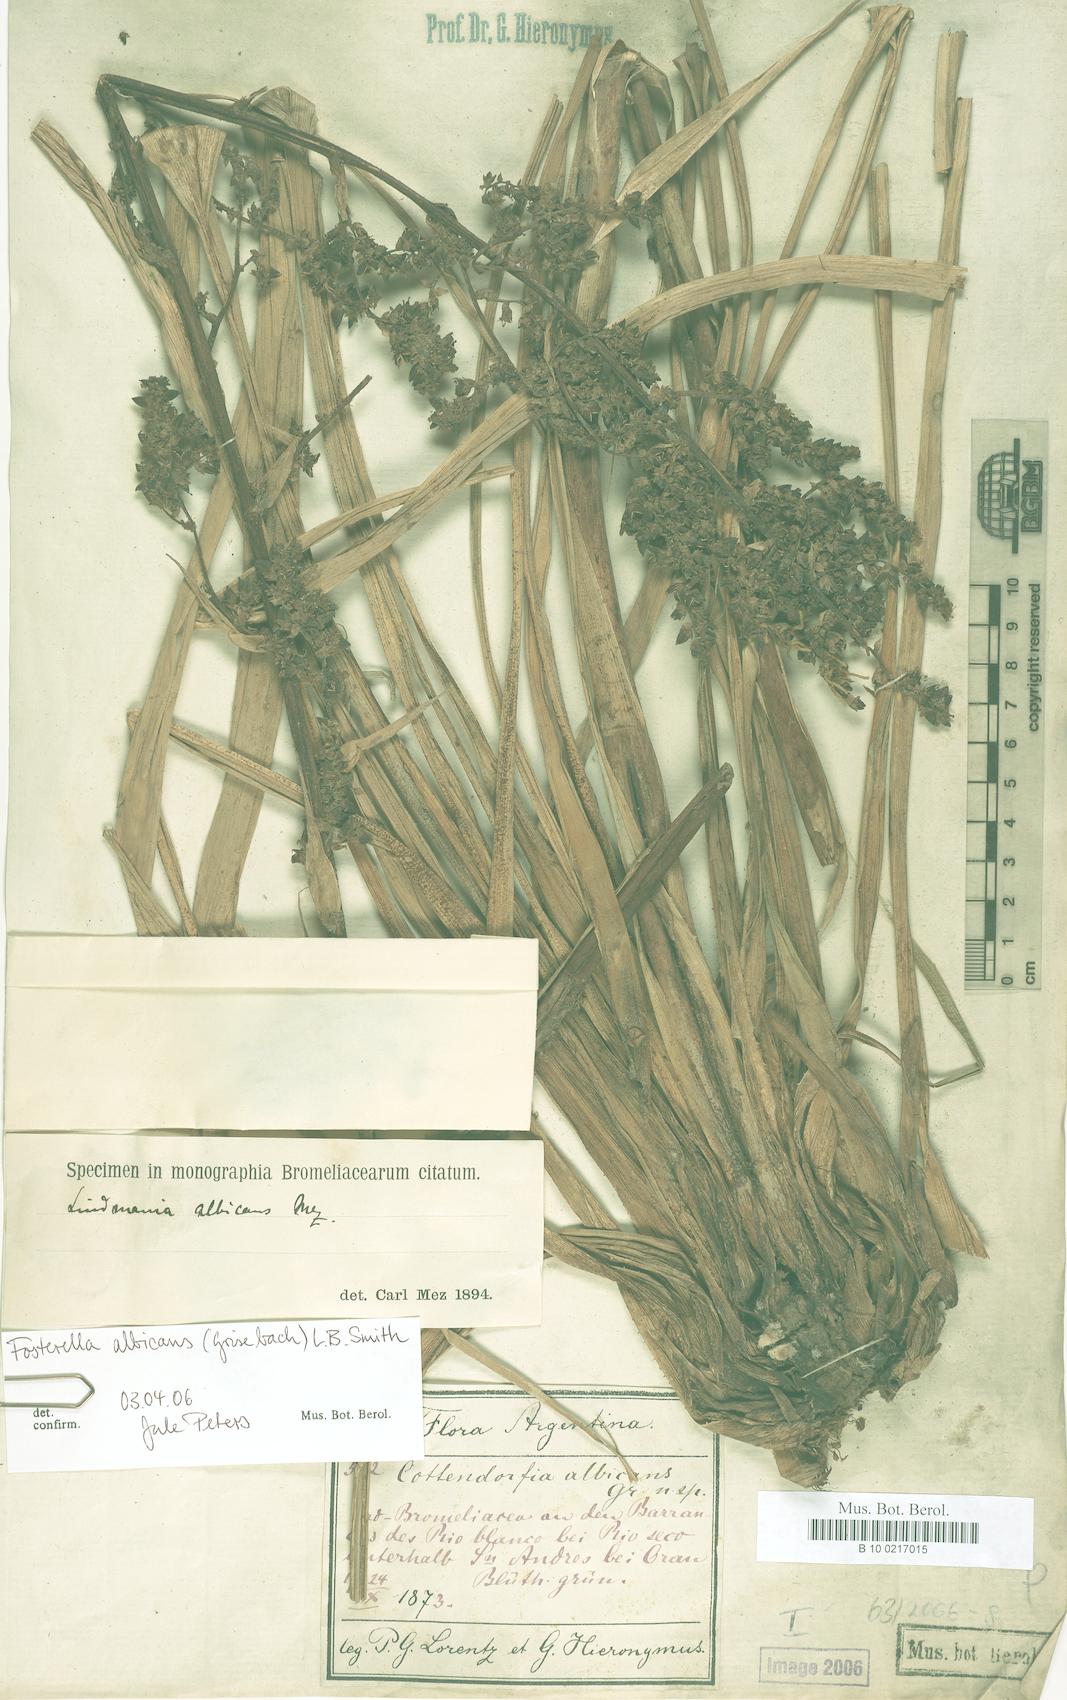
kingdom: Plantae
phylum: Tracheophyta
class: Liliopsida
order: Poales
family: Bromeliaceae
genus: Fosterella
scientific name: Fosterella albicans
